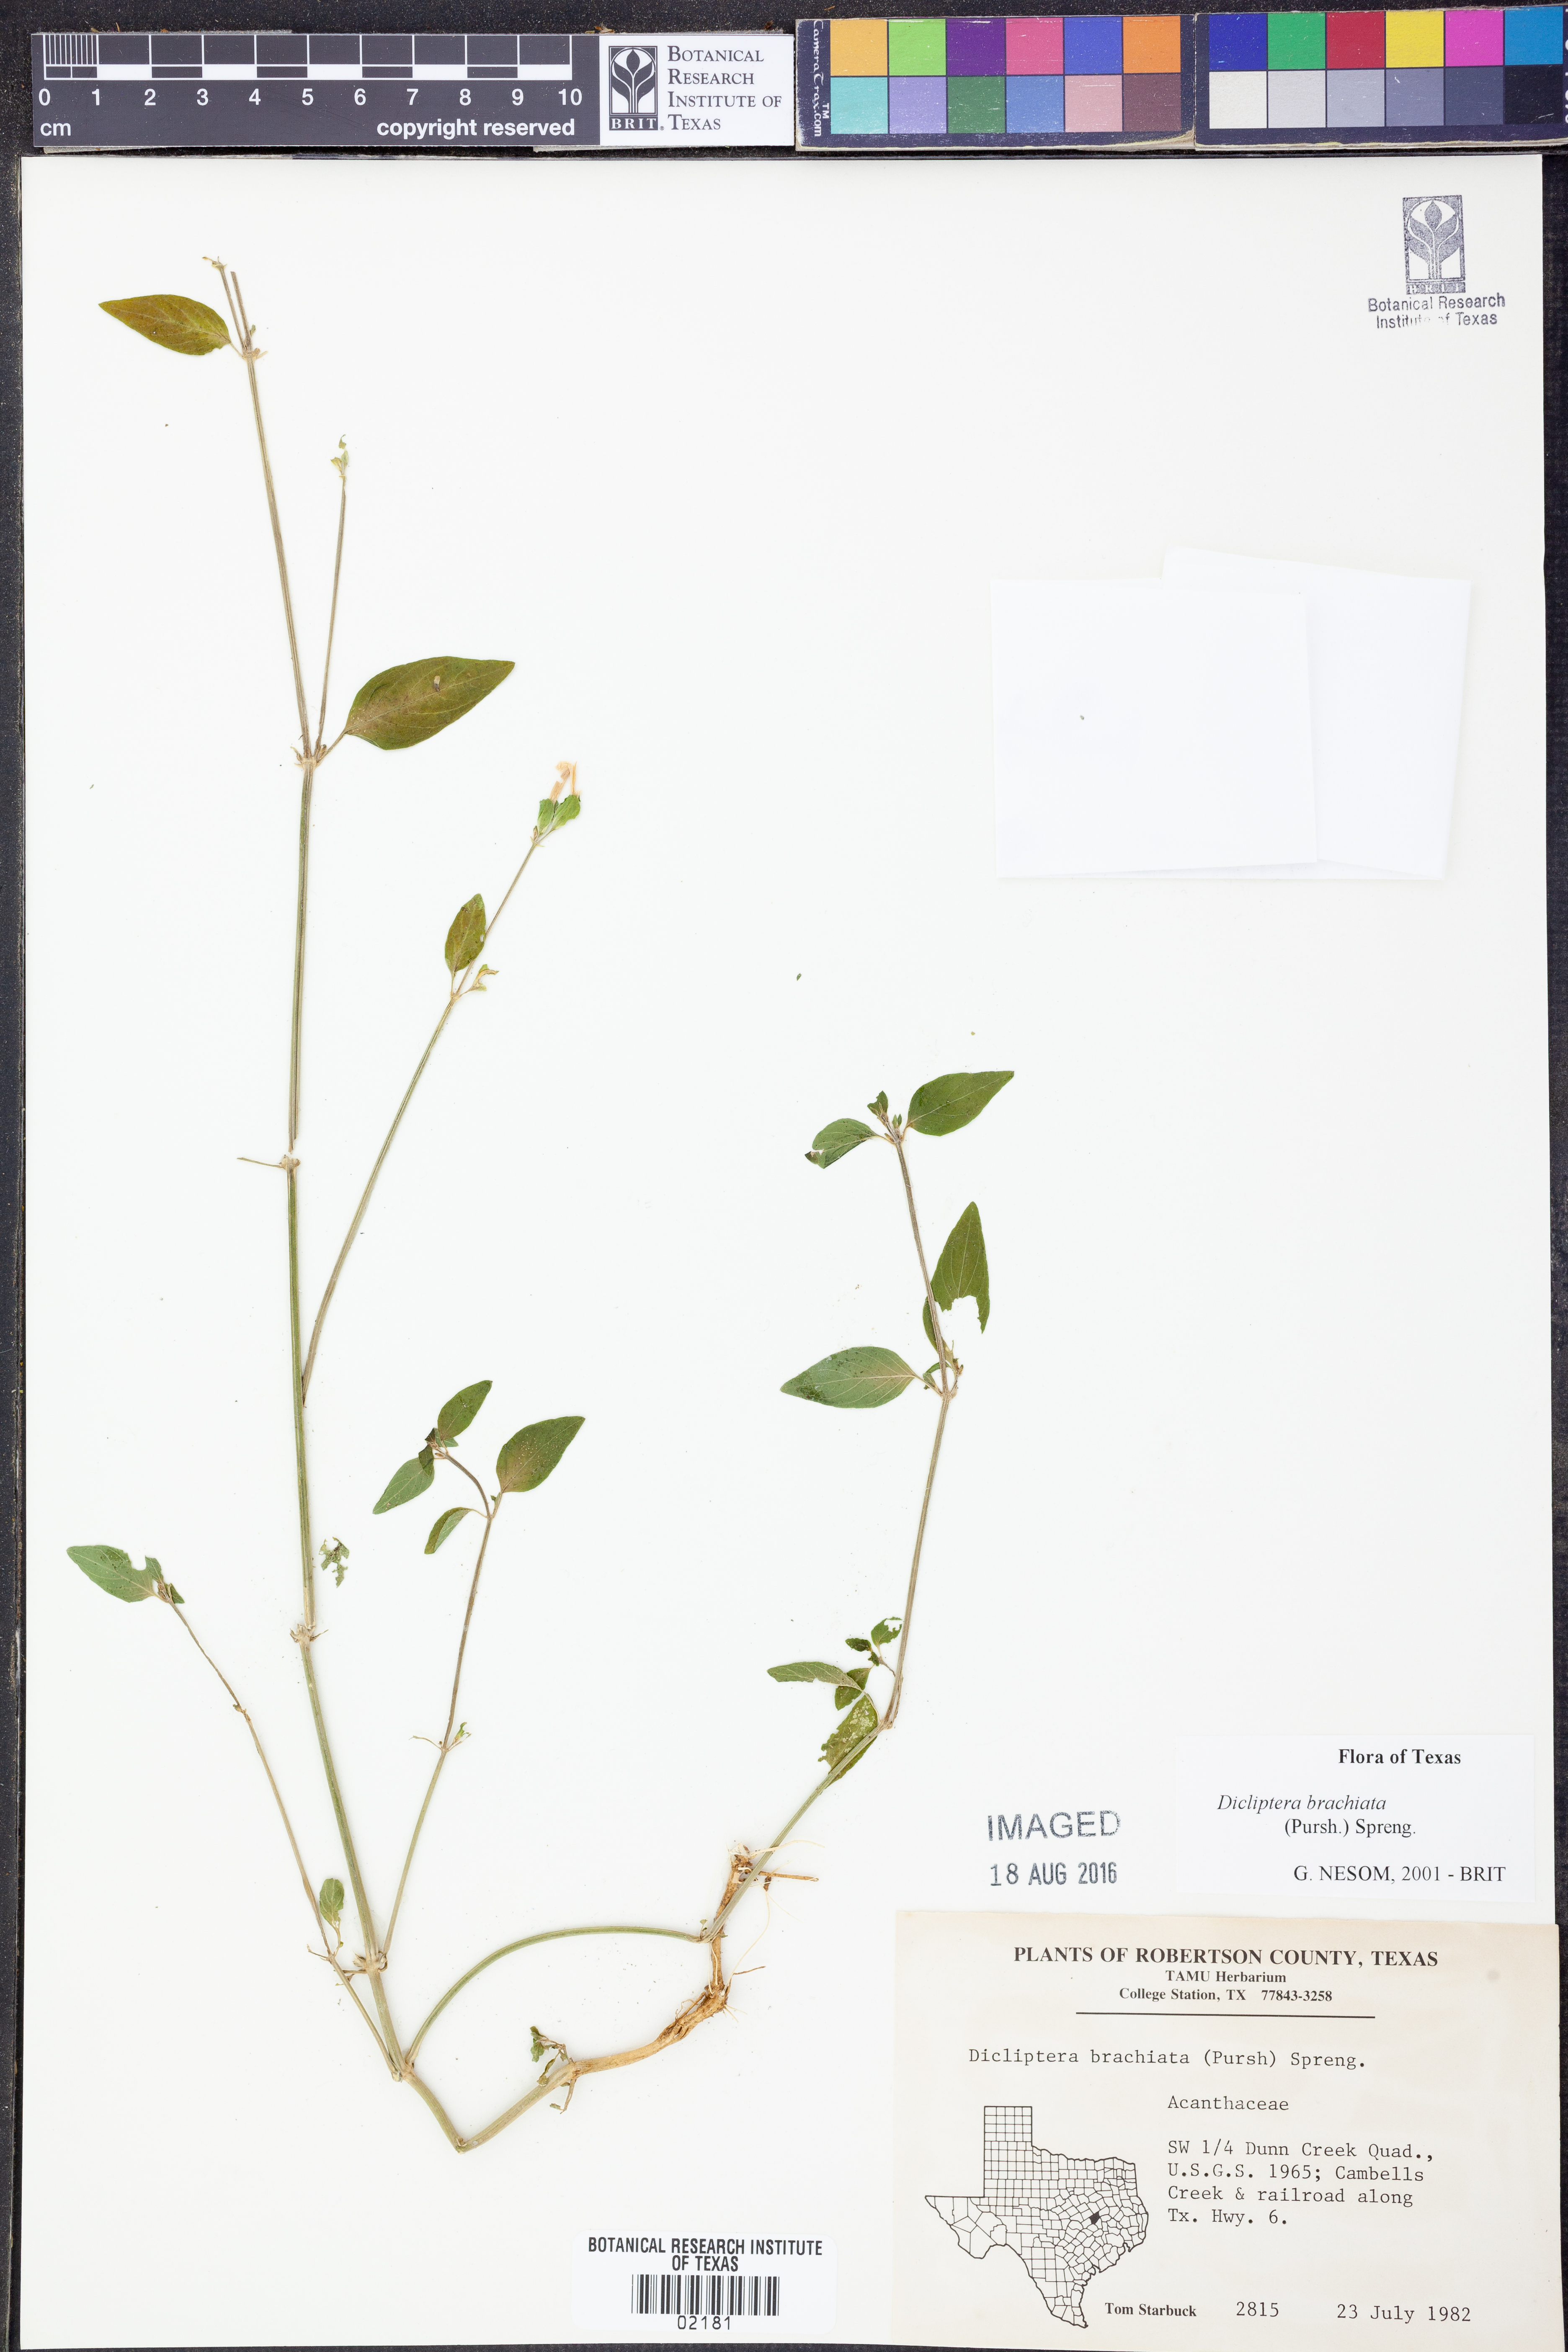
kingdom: Plantae
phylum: Tracheophyta
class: Magnoliopsida
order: Lamiales
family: Acanthaceae
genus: Dicliptera
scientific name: Dicliptera brachiata
